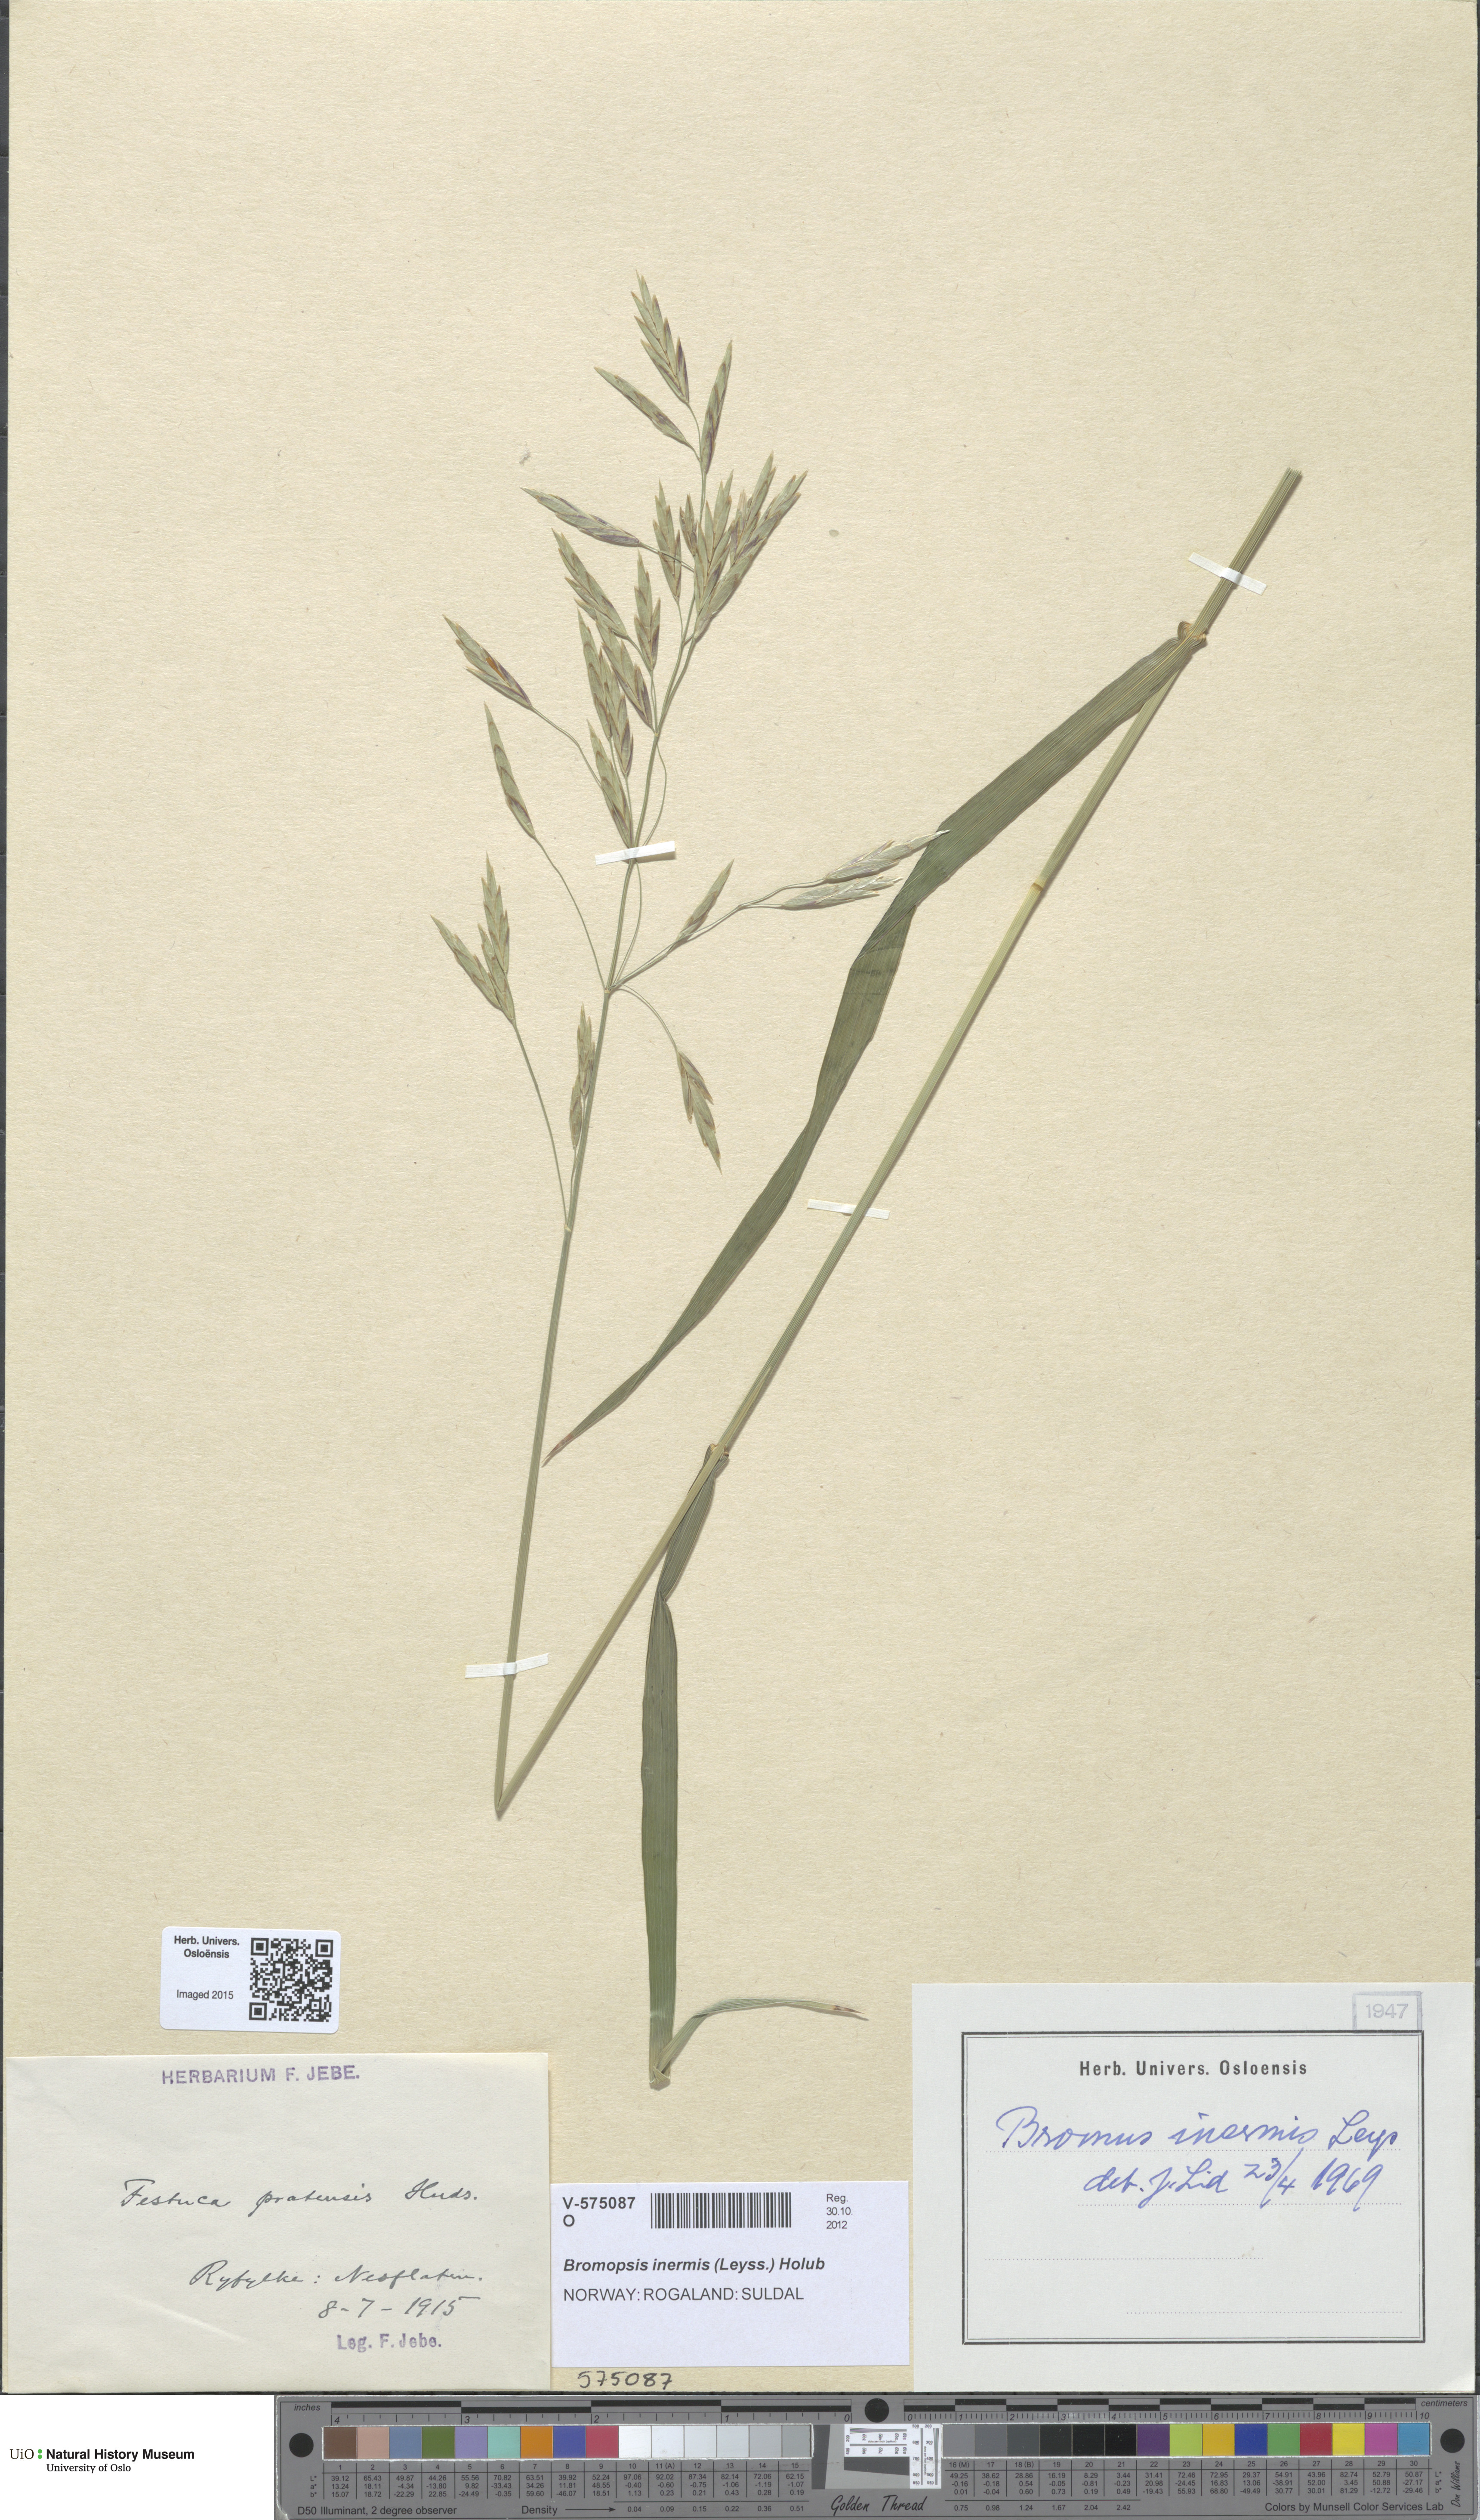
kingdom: Plantae
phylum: Tracheophyta
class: Liliopsida
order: Poales
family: Poaceae
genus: Bromus
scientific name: Bromus inermis
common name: Smooth brome
